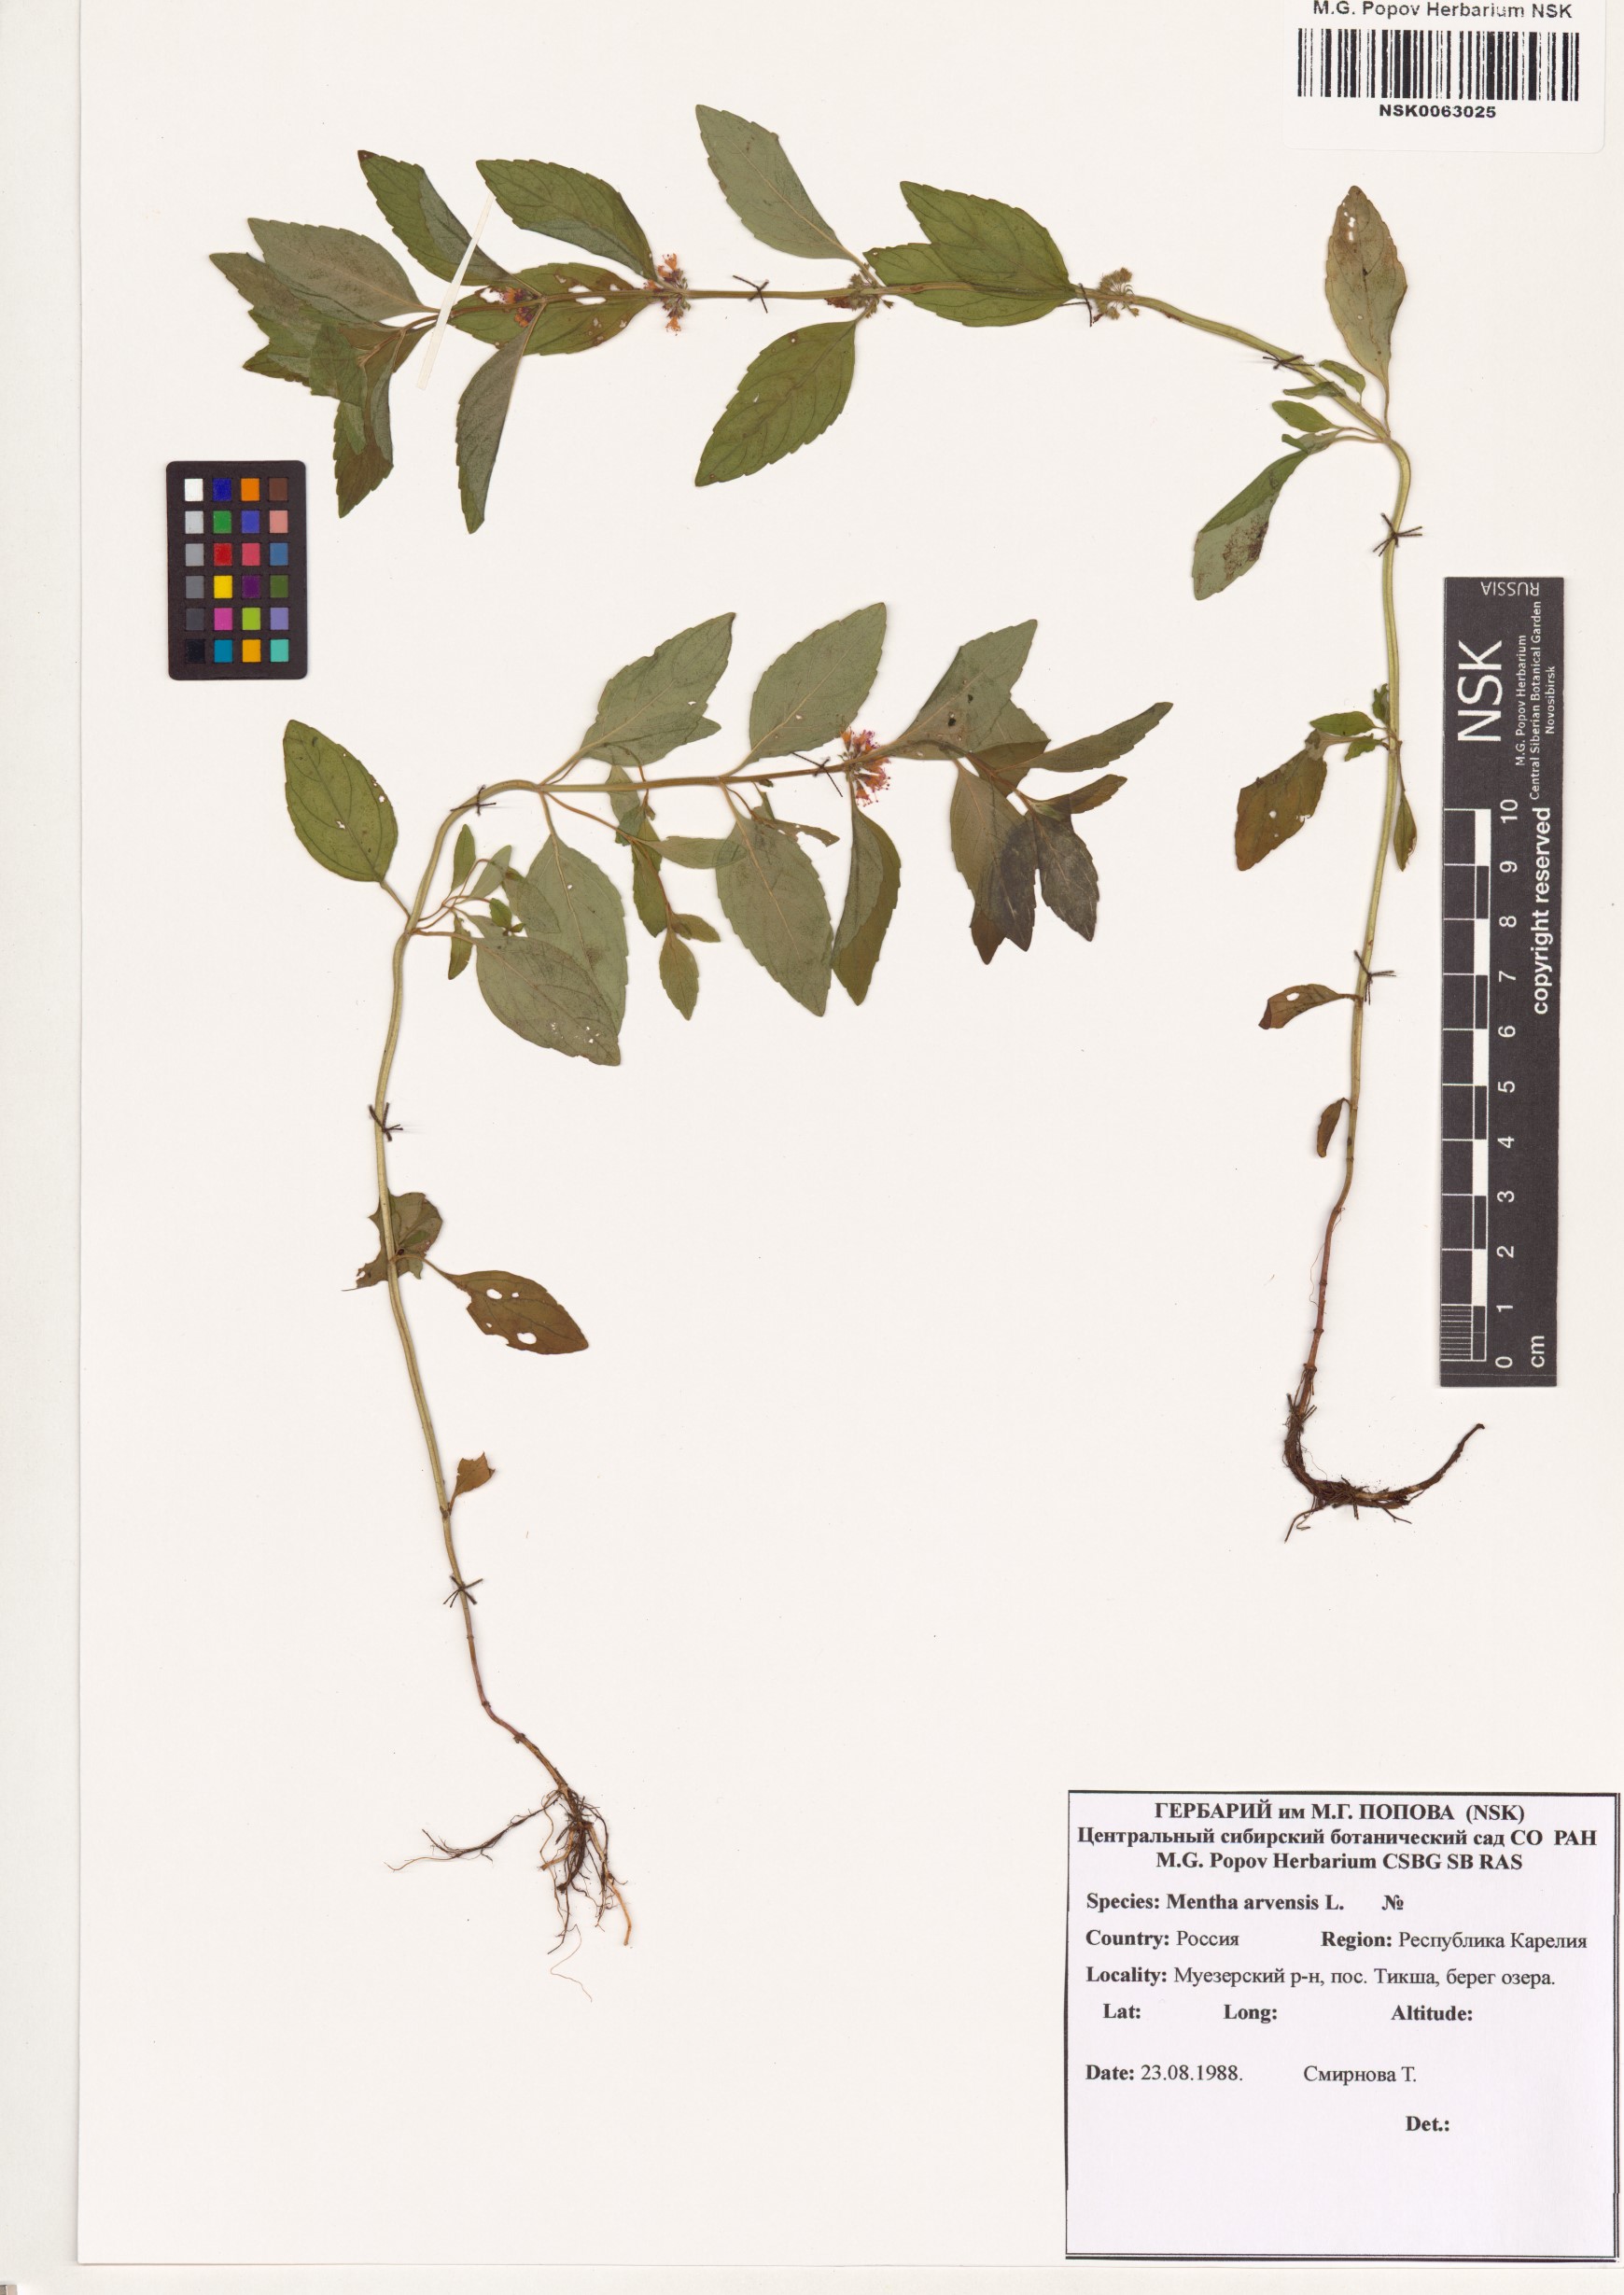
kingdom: Plantae
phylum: Tracheophyta
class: Magnoliopsida
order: Lamiales
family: Lamiaceae
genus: Mentha
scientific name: Mentha arvensis
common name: Corn mint
